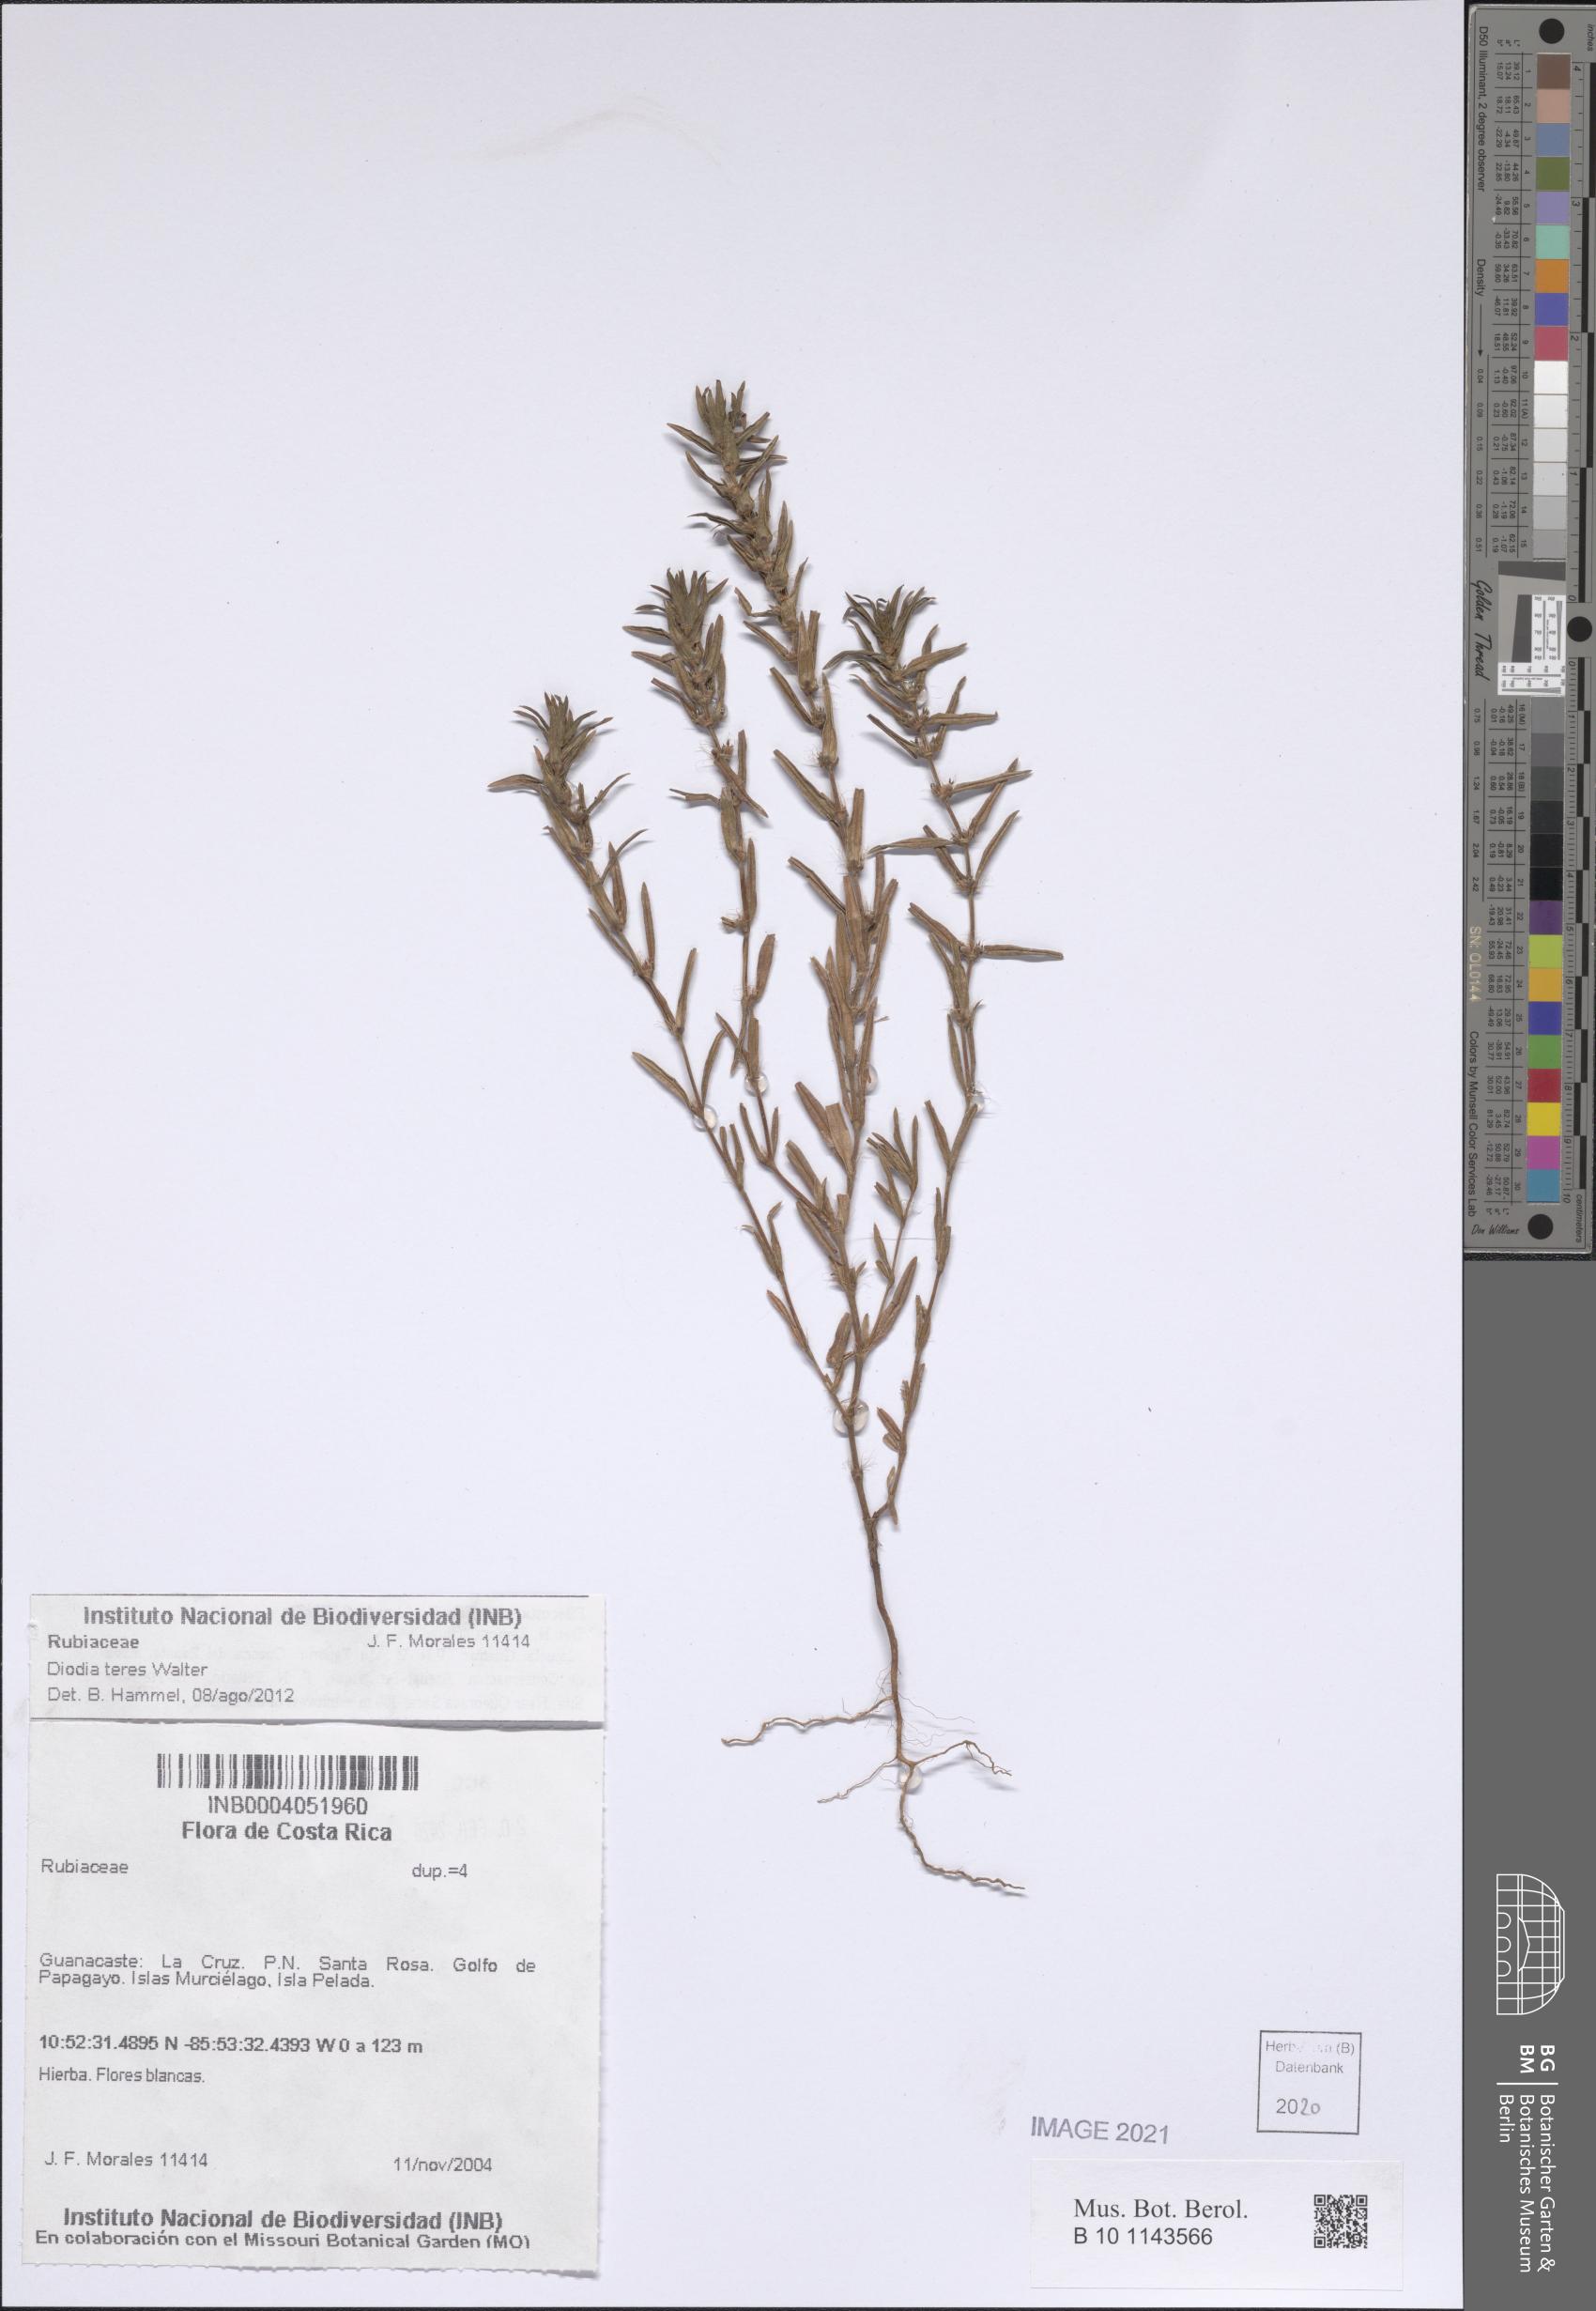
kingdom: Plantae
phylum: Tracheophyta
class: Magnoliopsida
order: Gentianales
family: Rubiaceae
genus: Hexasepalum
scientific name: Hexasepalum teres
